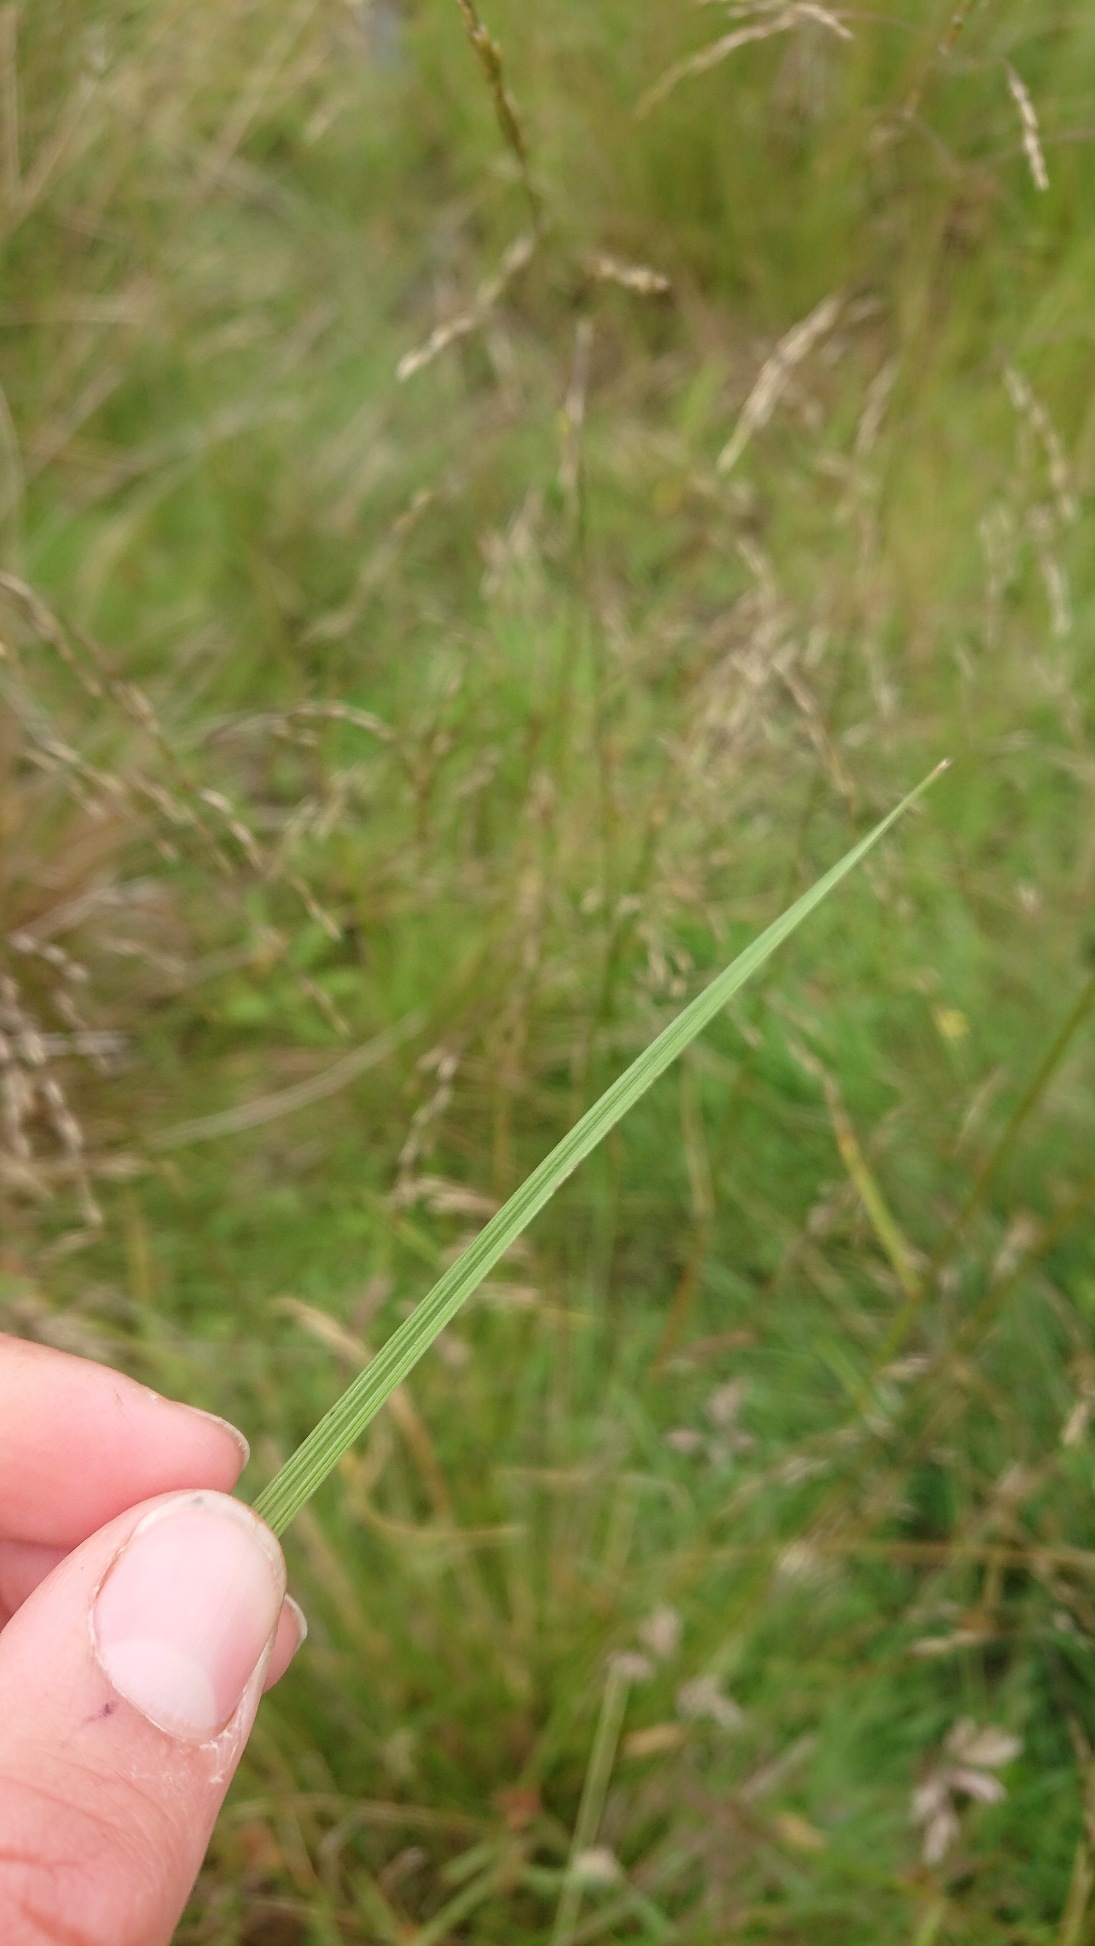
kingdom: Plantae
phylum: Tracheophyta
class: Liliopsida
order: Poales
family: Poaceae
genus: Deschampsia
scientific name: Deschampsia cespitosa
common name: Mose-bunke
